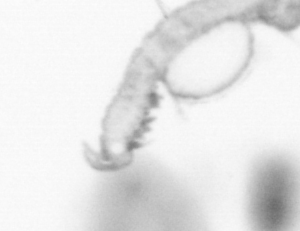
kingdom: Animalia
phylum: Annelida
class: Polychaeta
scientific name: Polychaeta
